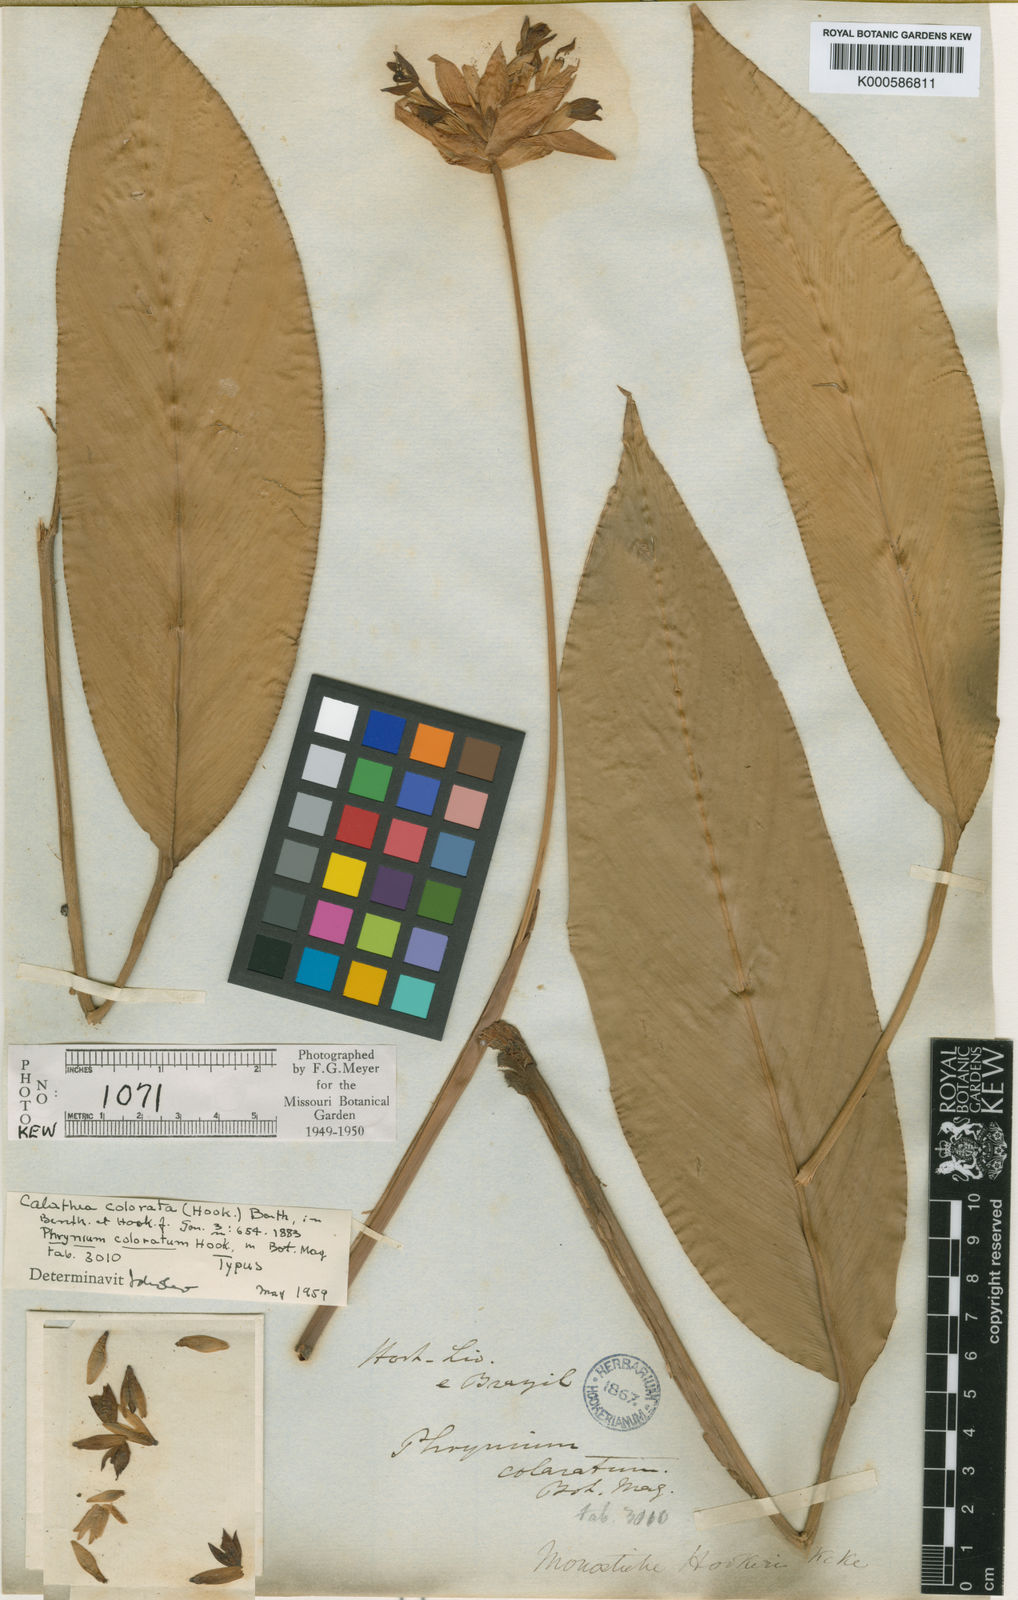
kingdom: Plantae
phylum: Tracheophyta
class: Liliopsida
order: Zingiberales
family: Marantaceae
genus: Calathea
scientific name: Calathea
